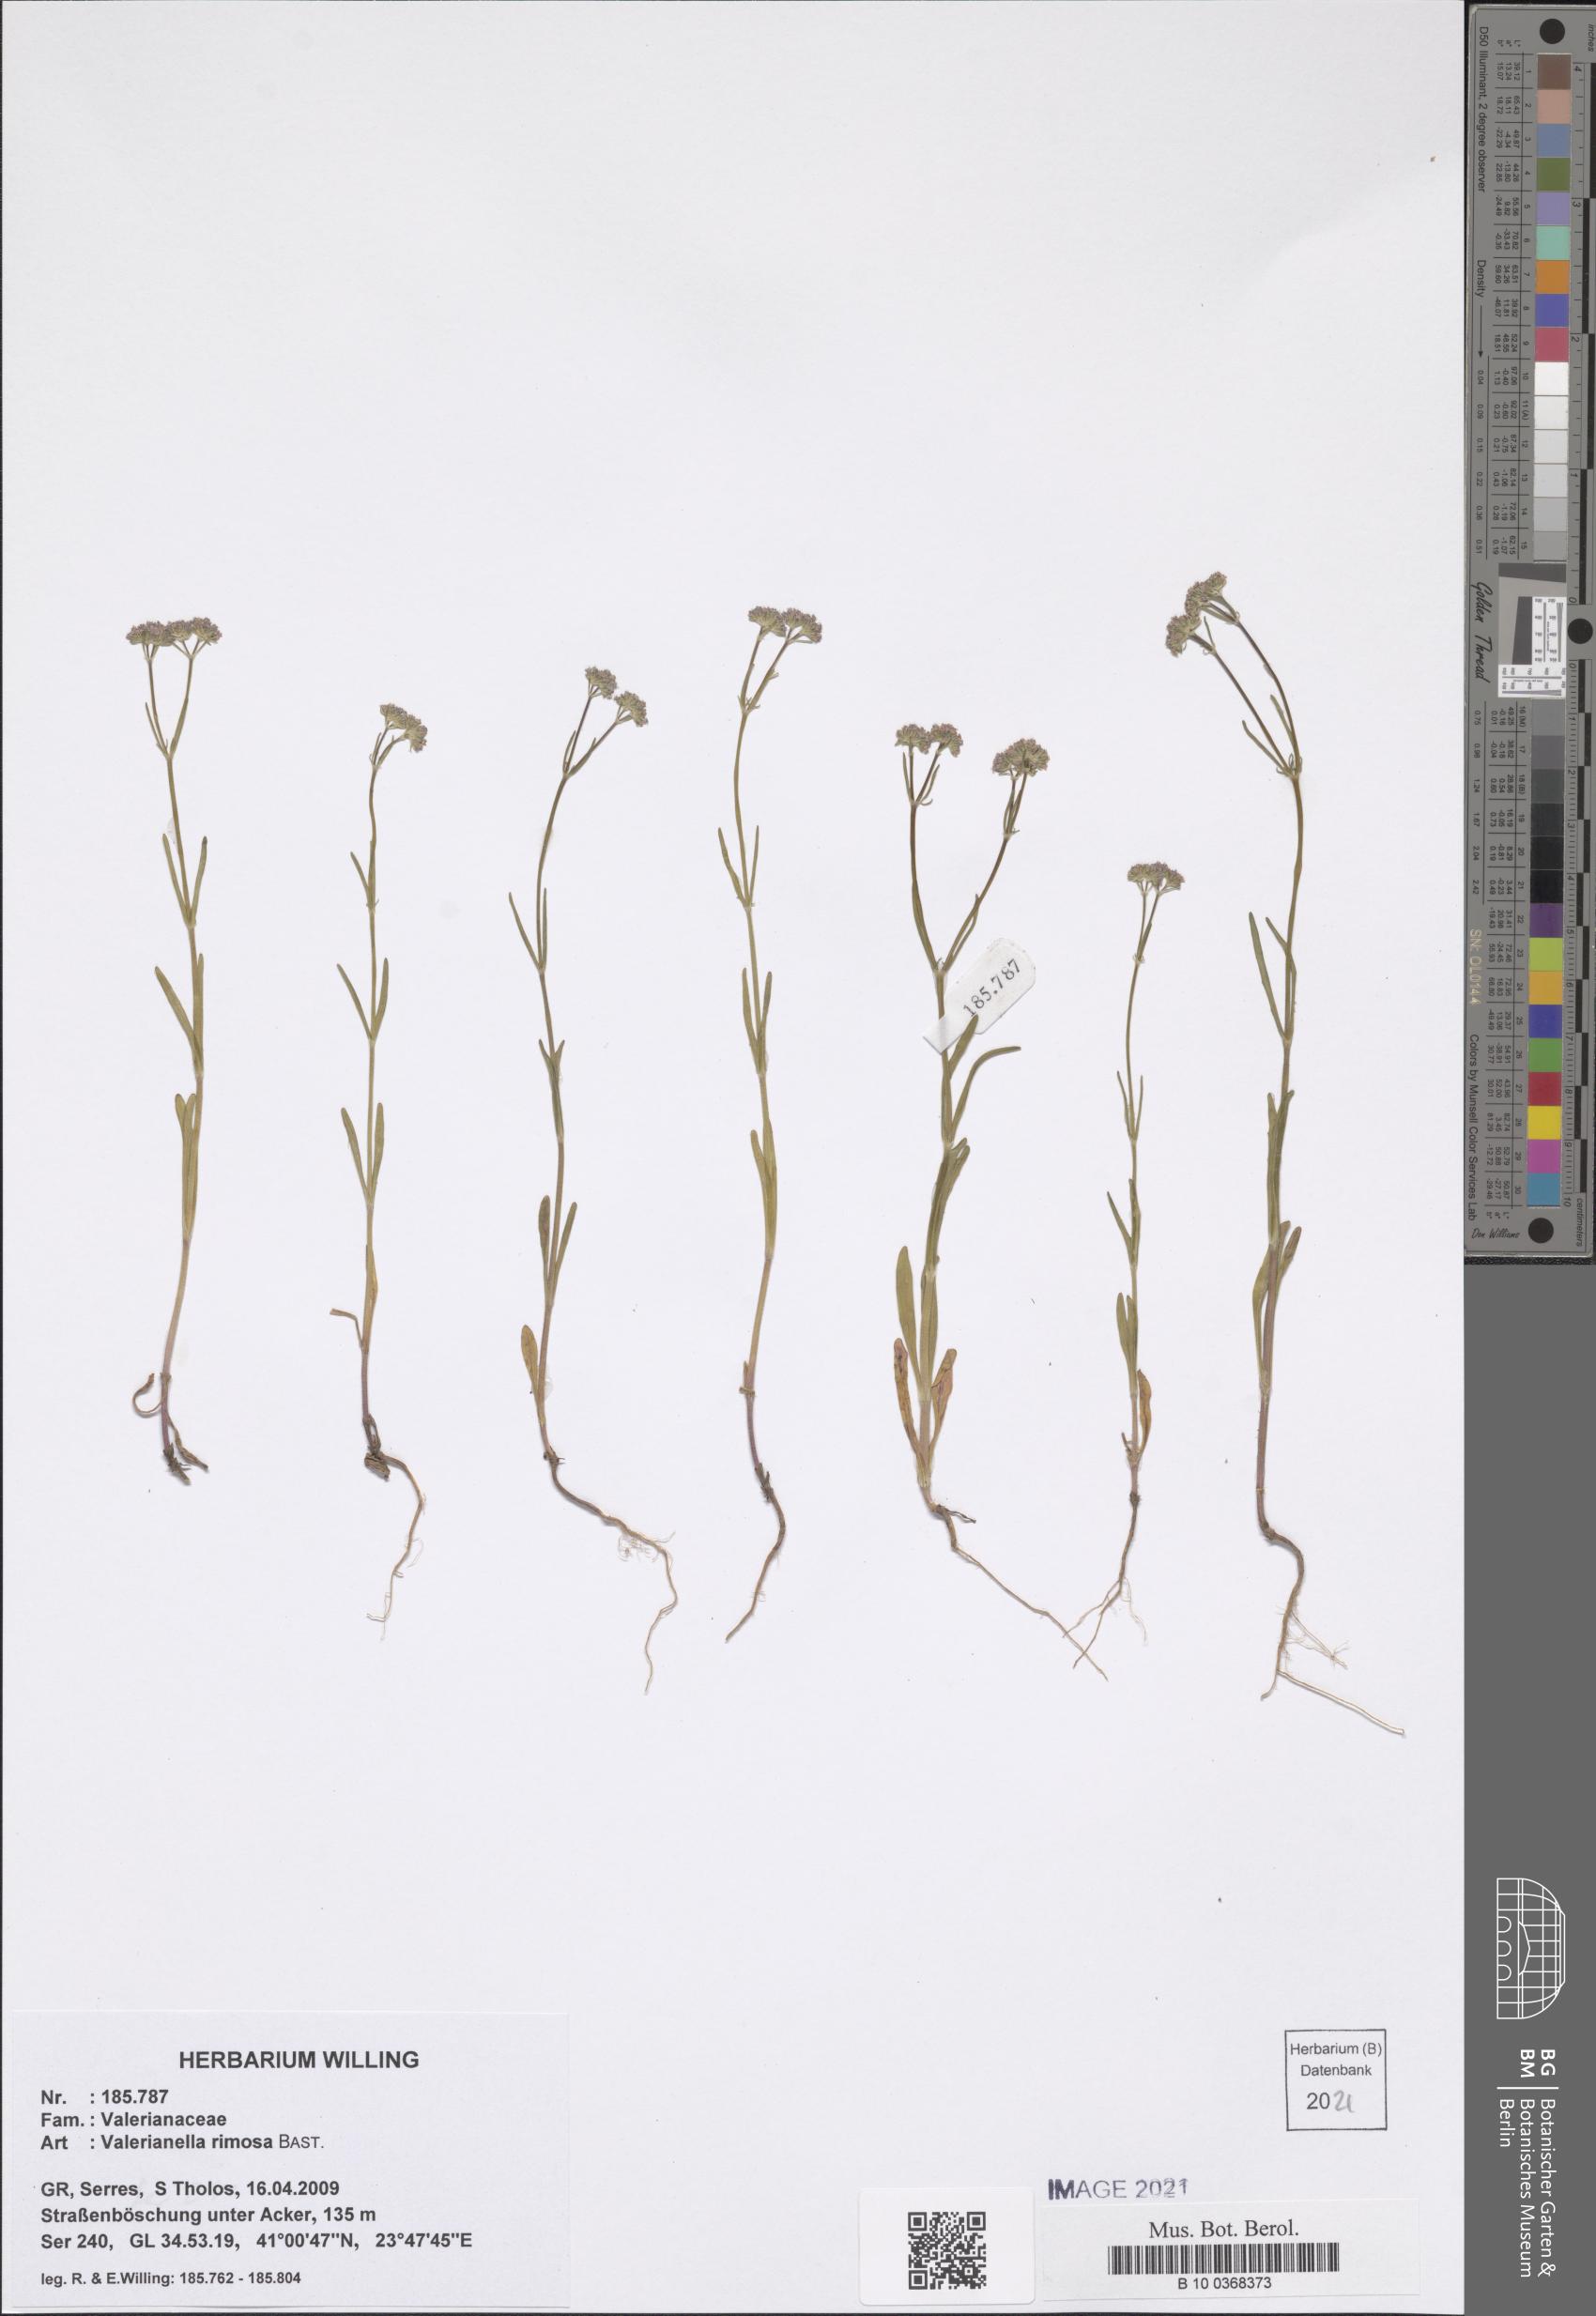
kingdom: Plantae
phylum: Tracheophyta
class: Magnoliopsida
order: Dipsacales
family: Caprifoliaceae
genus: Valerianella
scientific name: Valerianella rimosa
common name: Broad-fruited cornsalad
